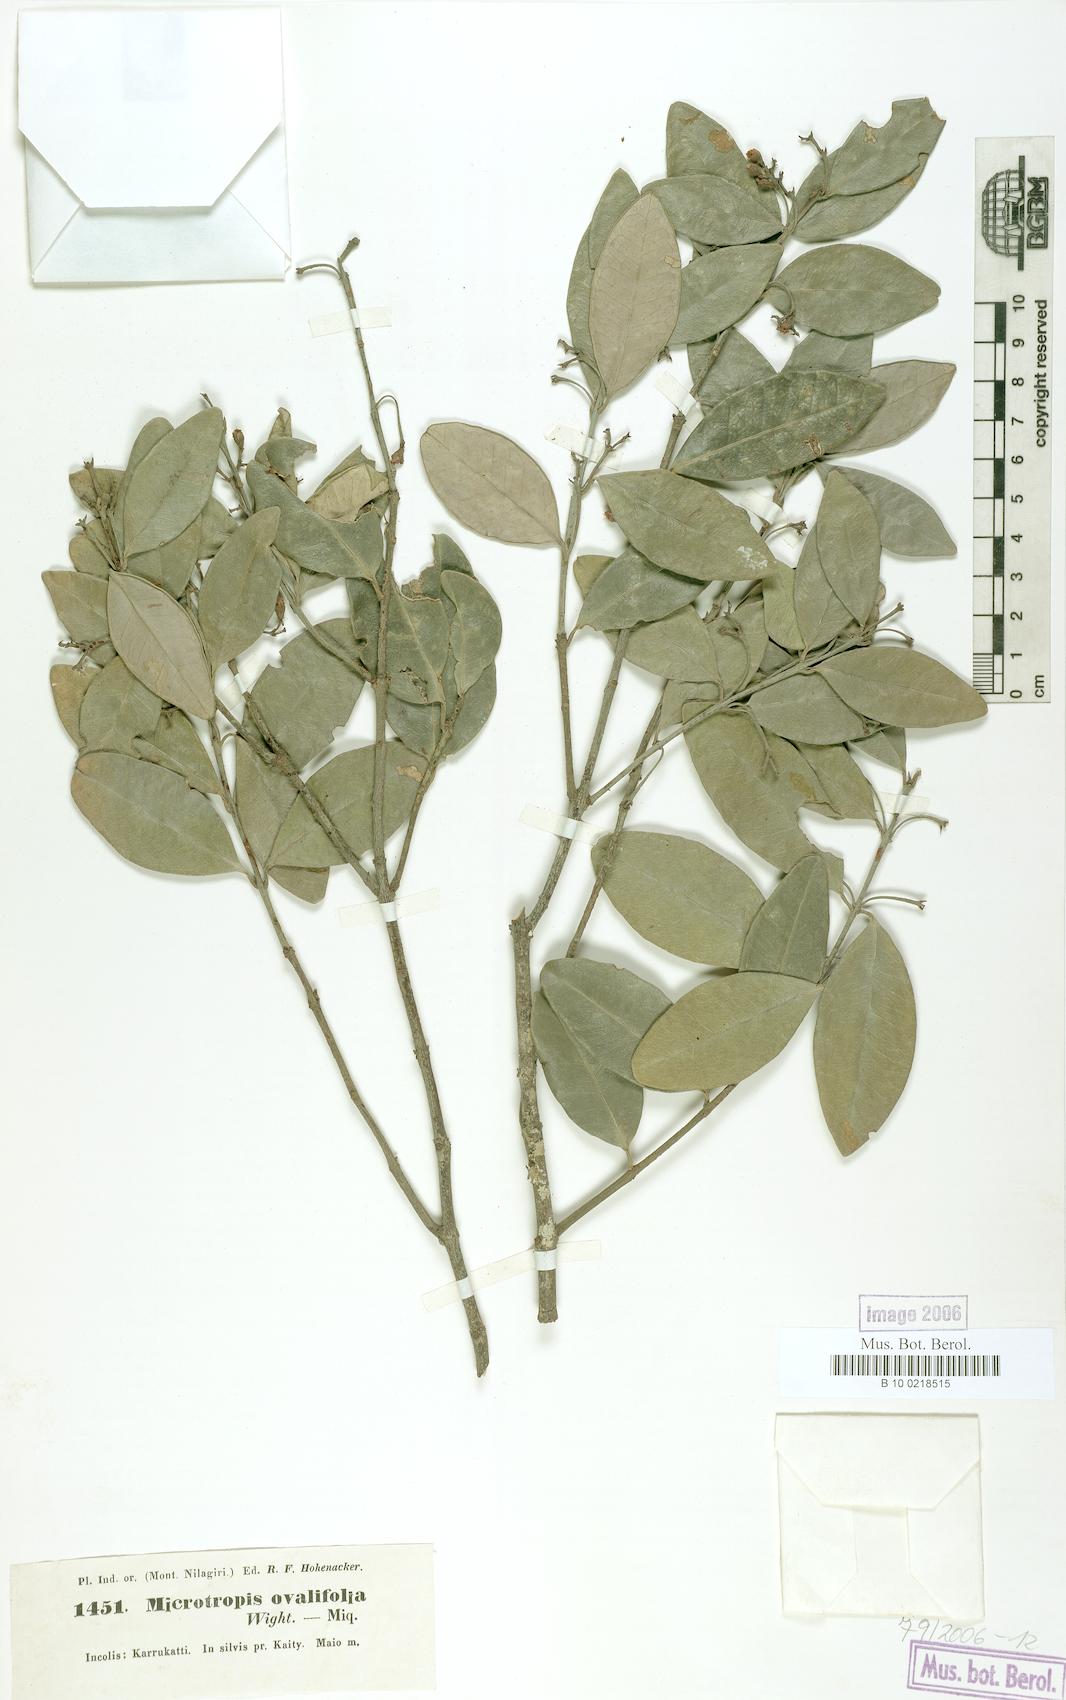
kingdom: Plantae
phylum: Tracheophyta
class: Magnoliopsida
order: Celastrales
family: Celastraceae
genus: Microtropis
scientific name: Microtropis microcarpa
